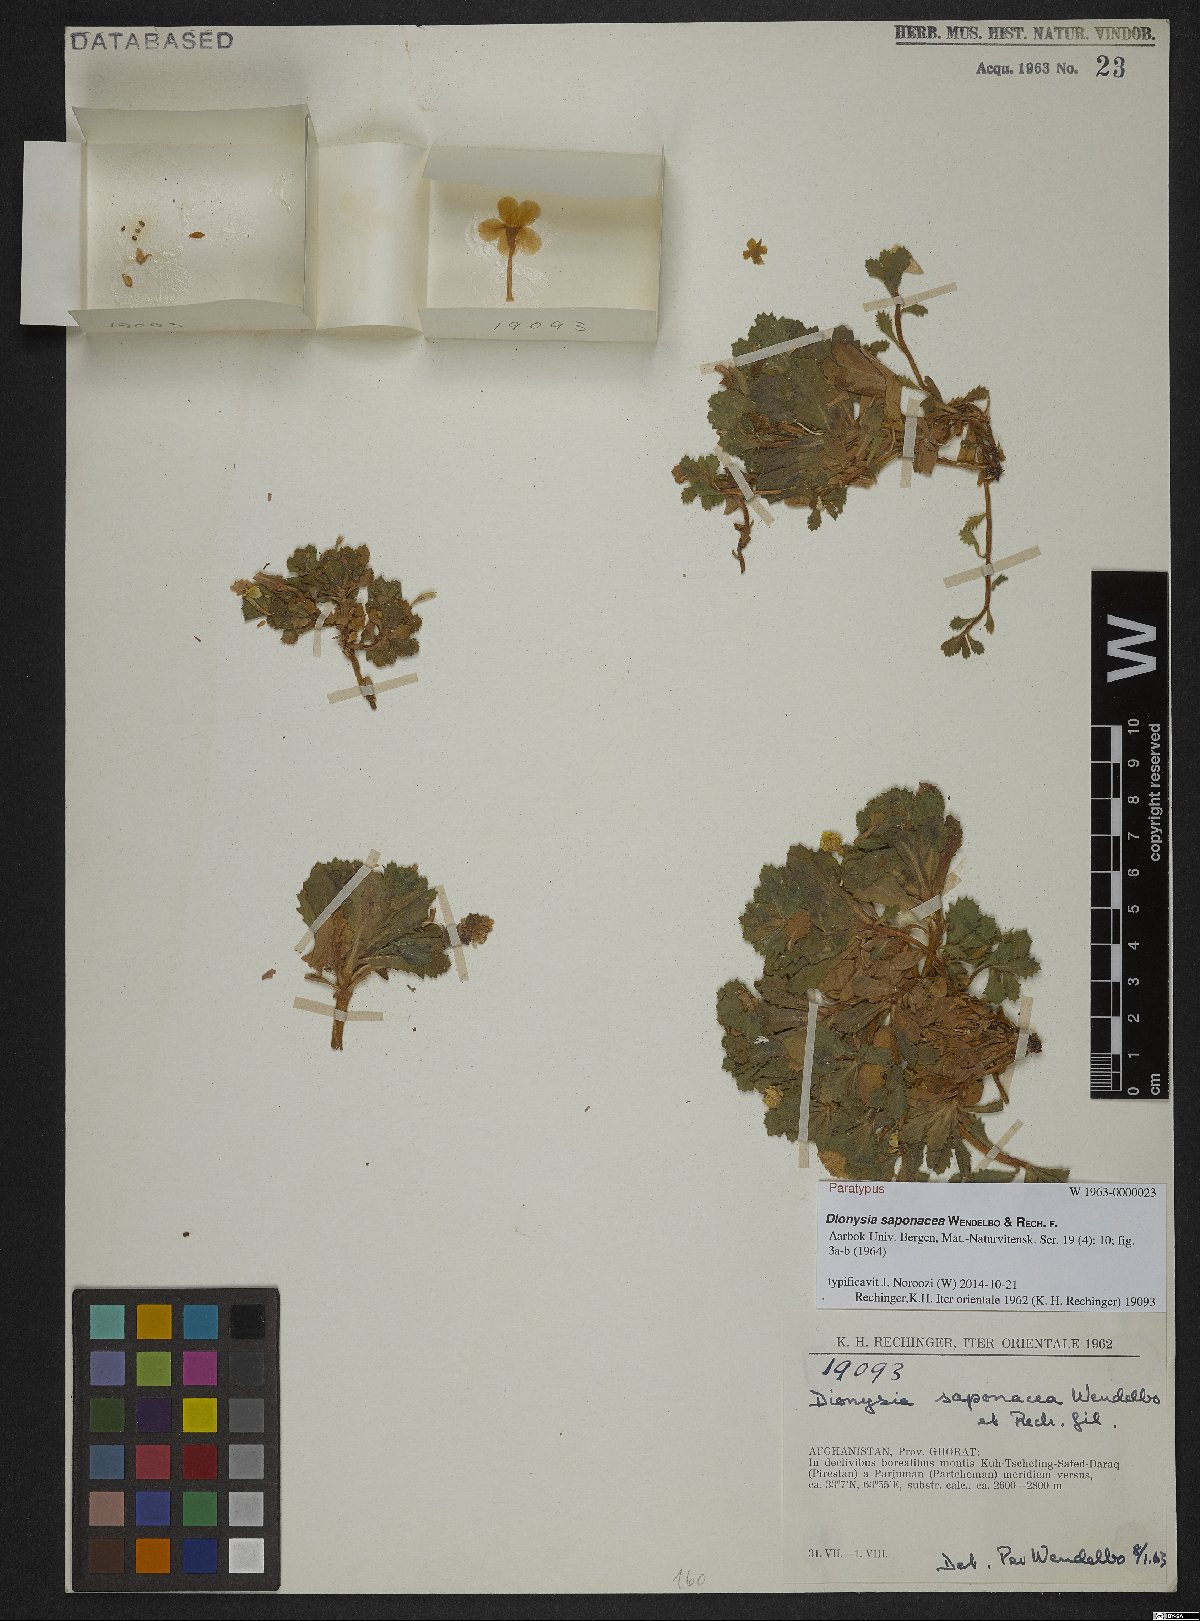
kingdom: Plantae
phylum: Tracheophyta
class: Magnoliopsida
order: Ericales
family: Primulaceae
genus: Dionysia
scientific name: Dionysia saponacea
